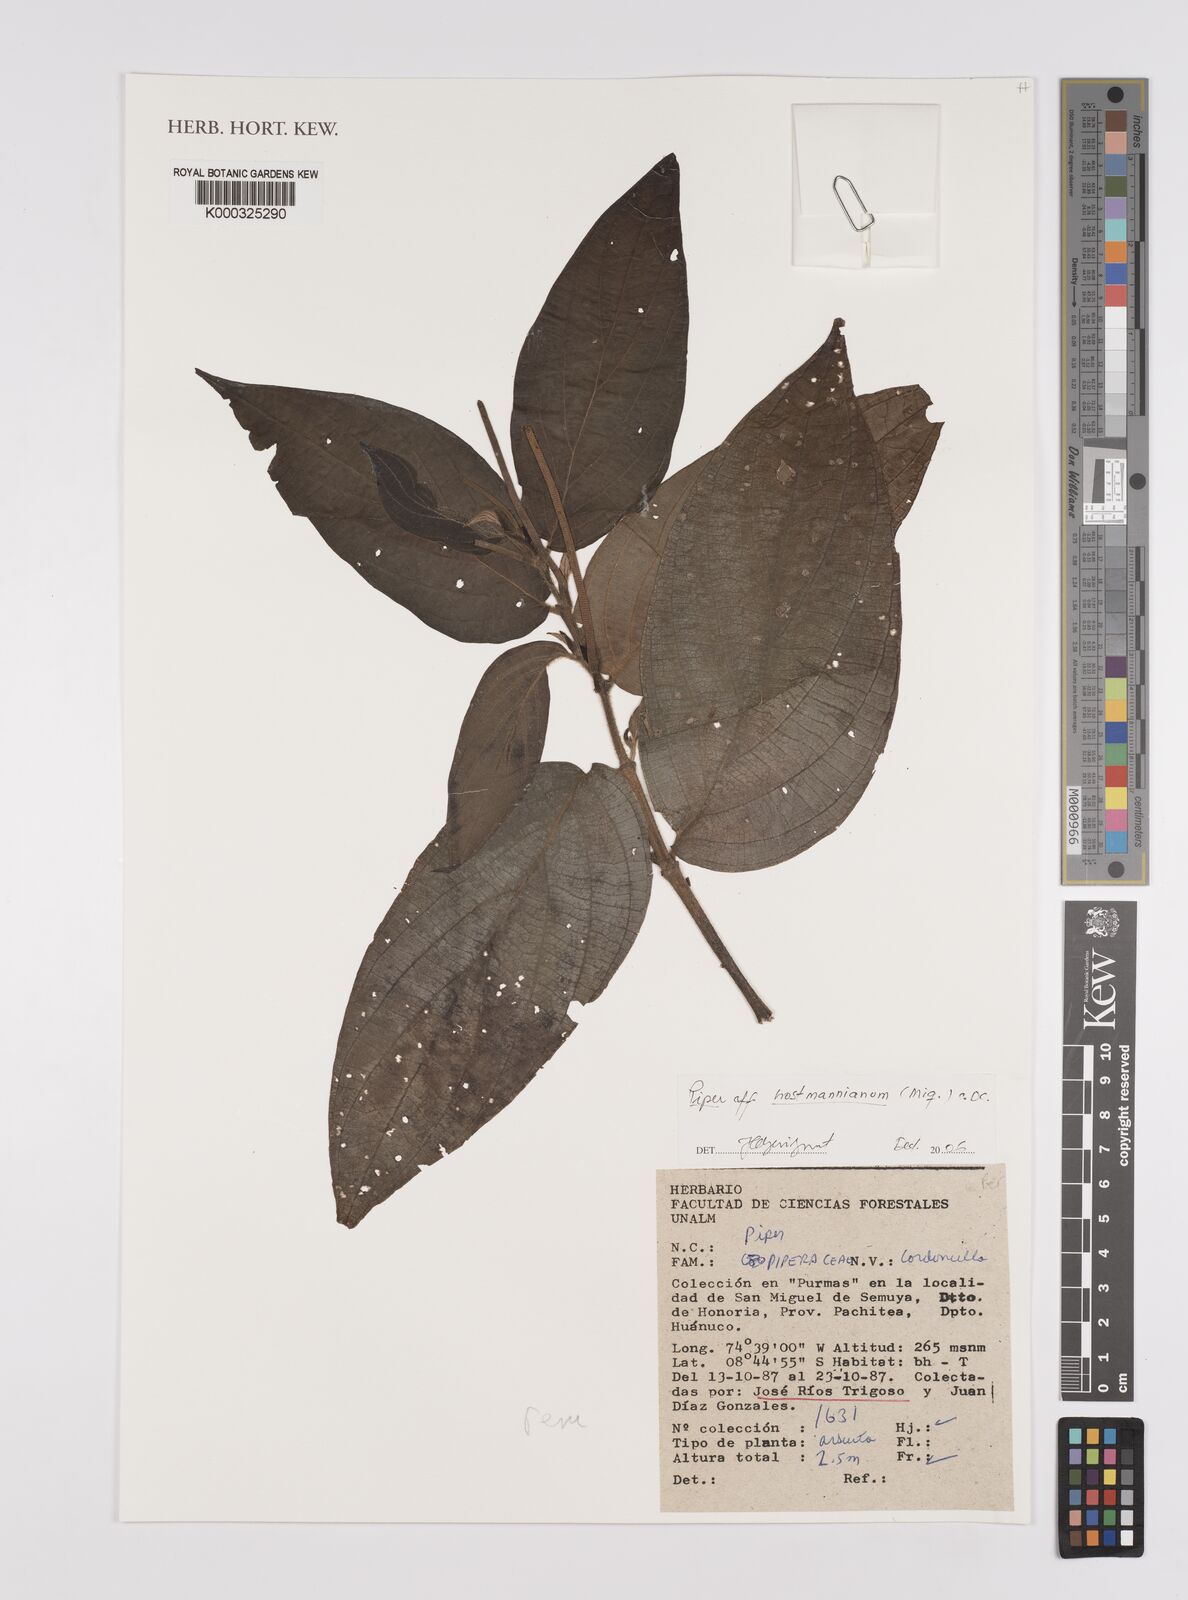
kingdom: Plantae
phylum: Tracheophyta
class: Magnoliopsida
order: Piperales
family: Piperaceae
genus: Piper
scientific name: Piper
